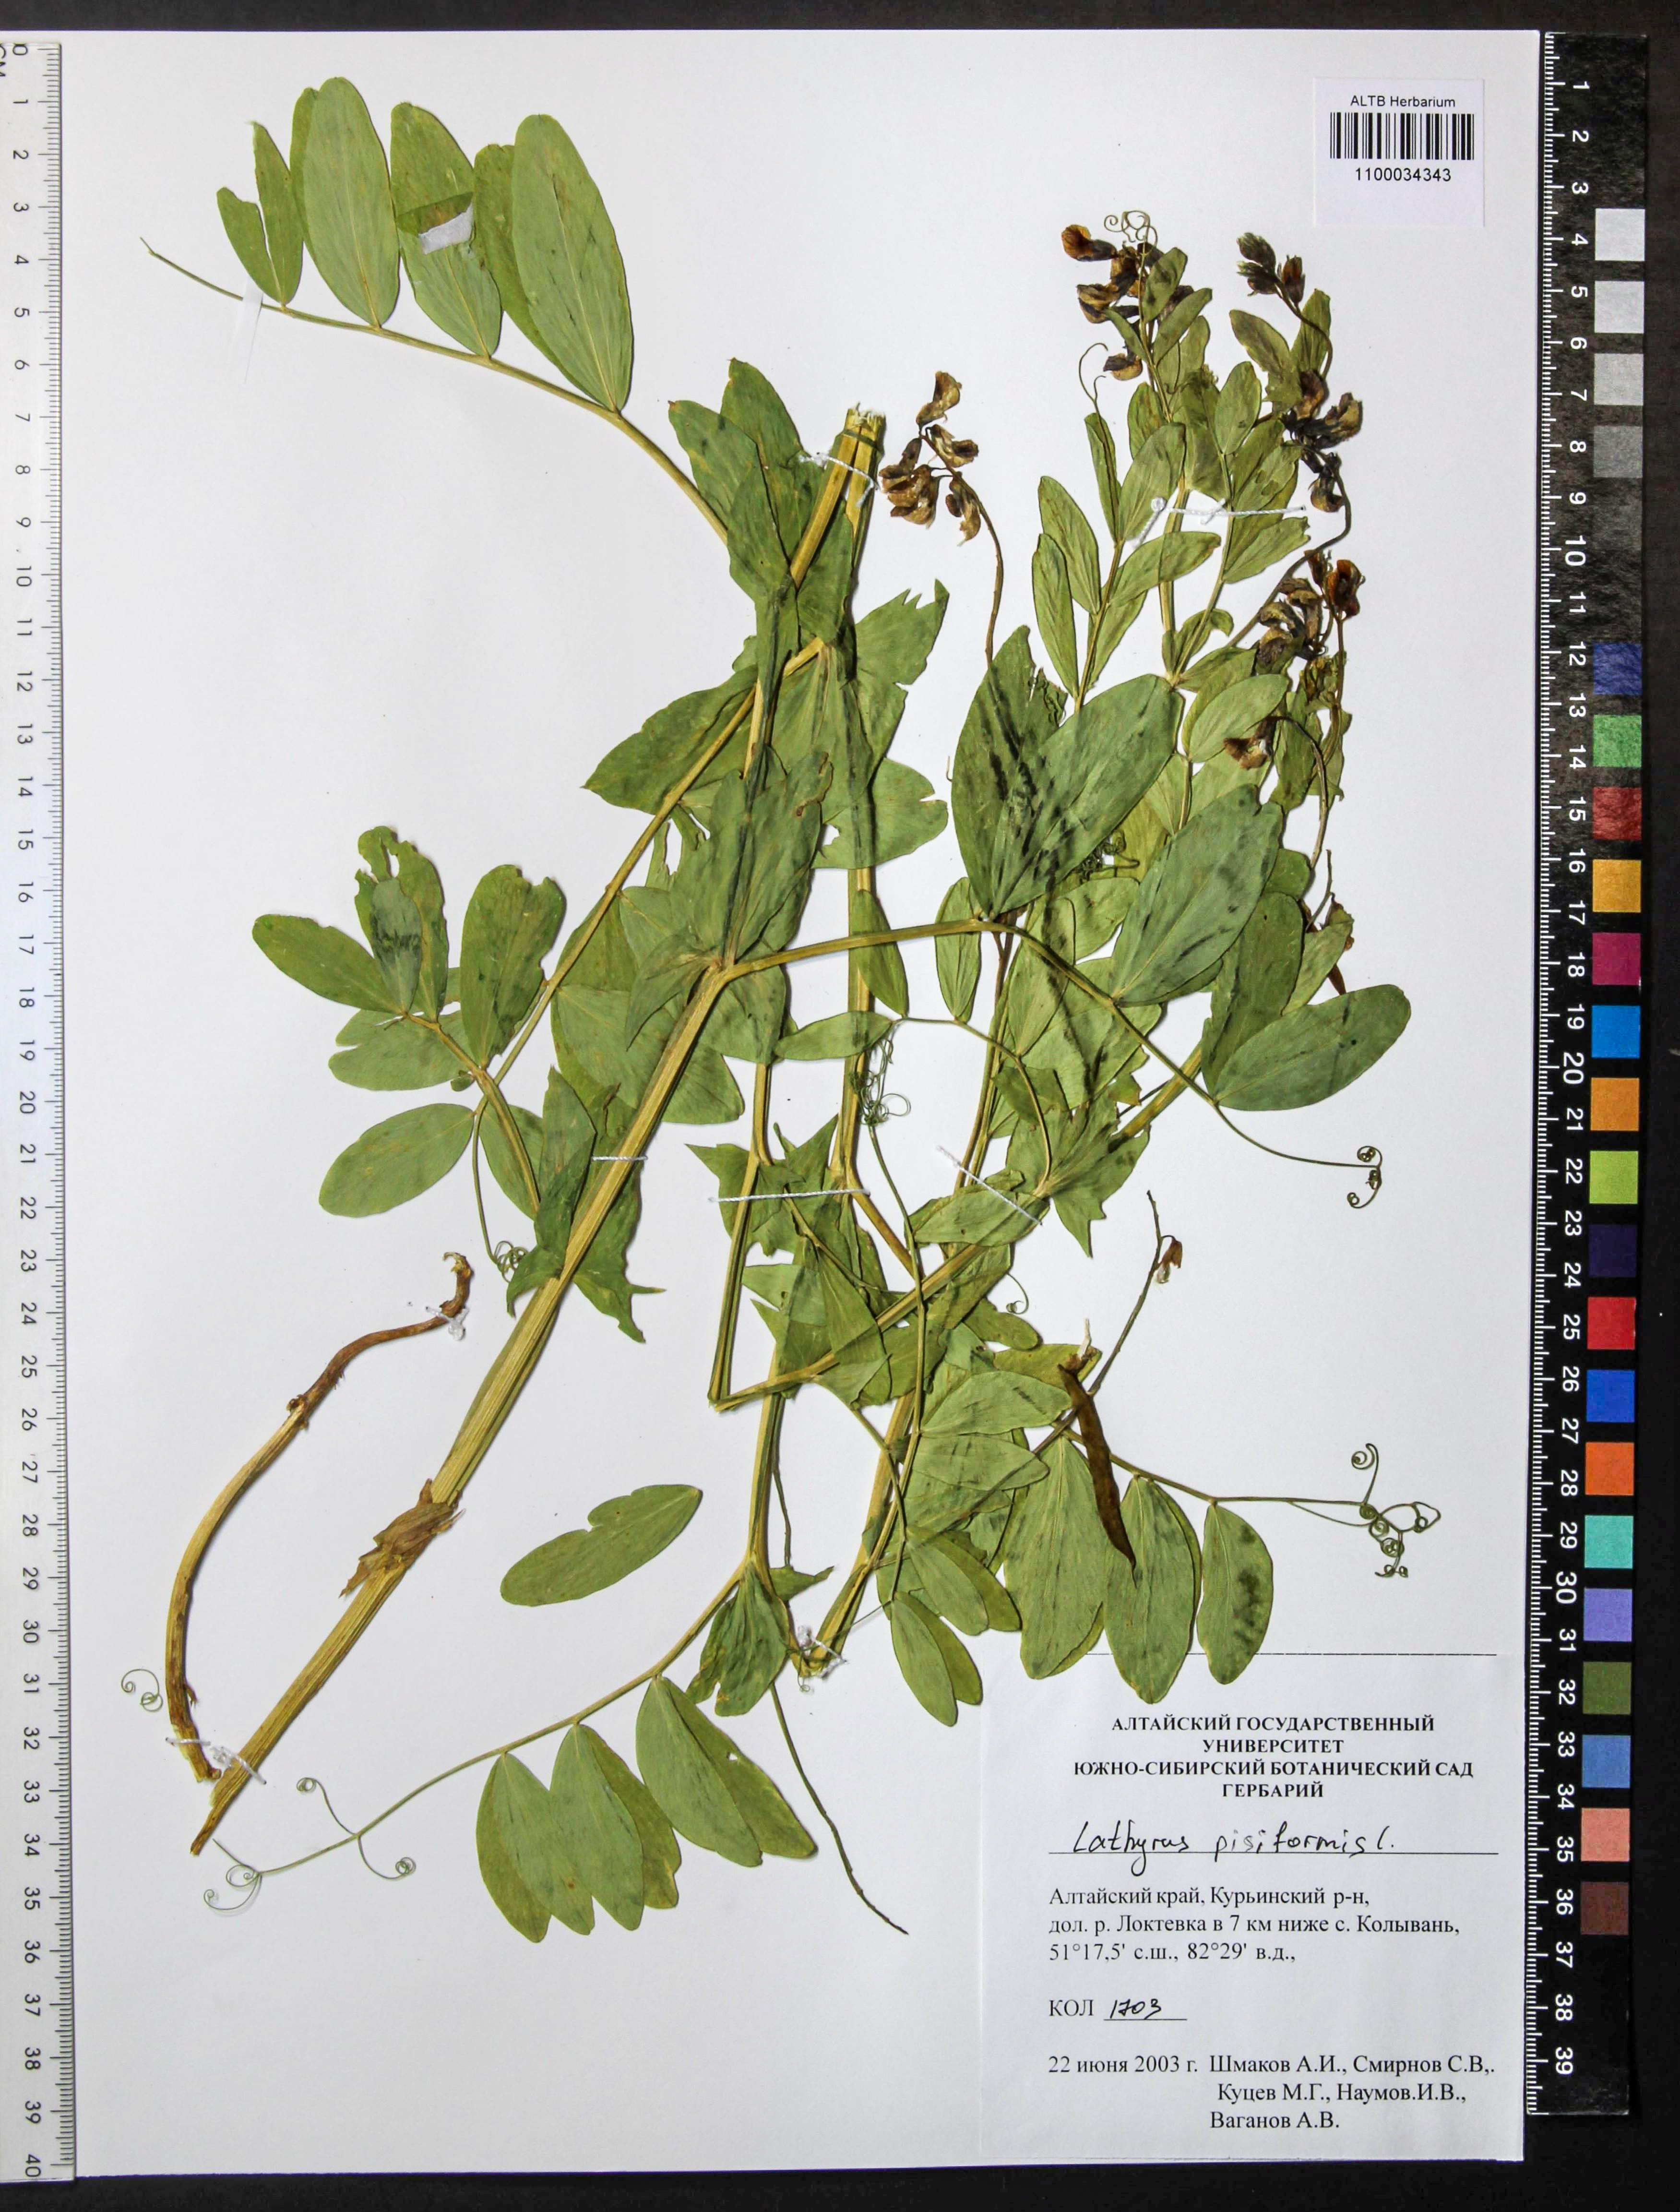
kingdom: Plantae
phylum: Tracheophyta
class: Magnoliopsida
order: Fabales
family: Fabaceae
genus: Lathyrus
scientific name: Lathyrus pisiformis
